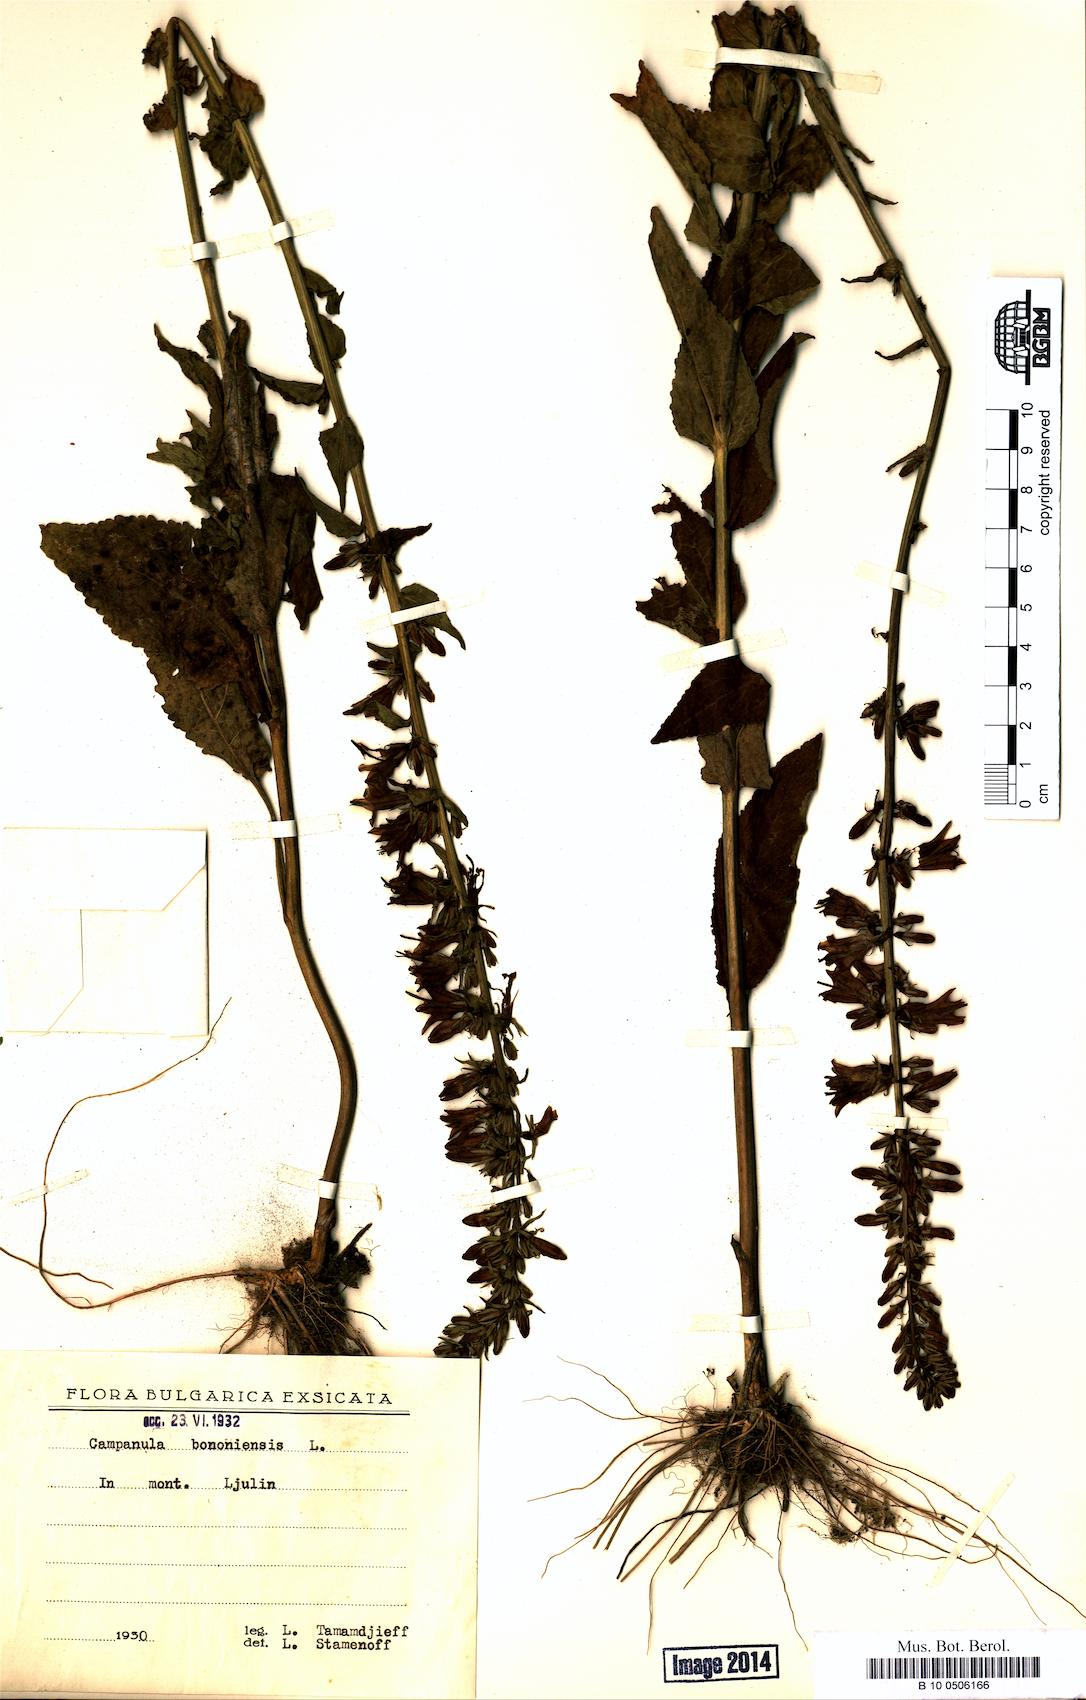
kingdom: Plantae
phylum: Tracheophyta
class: Magnoliopsida
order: Asterales
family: Campanulaceae
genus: Campanula
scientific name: Campanula bononiensis
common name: Pale bellflower
